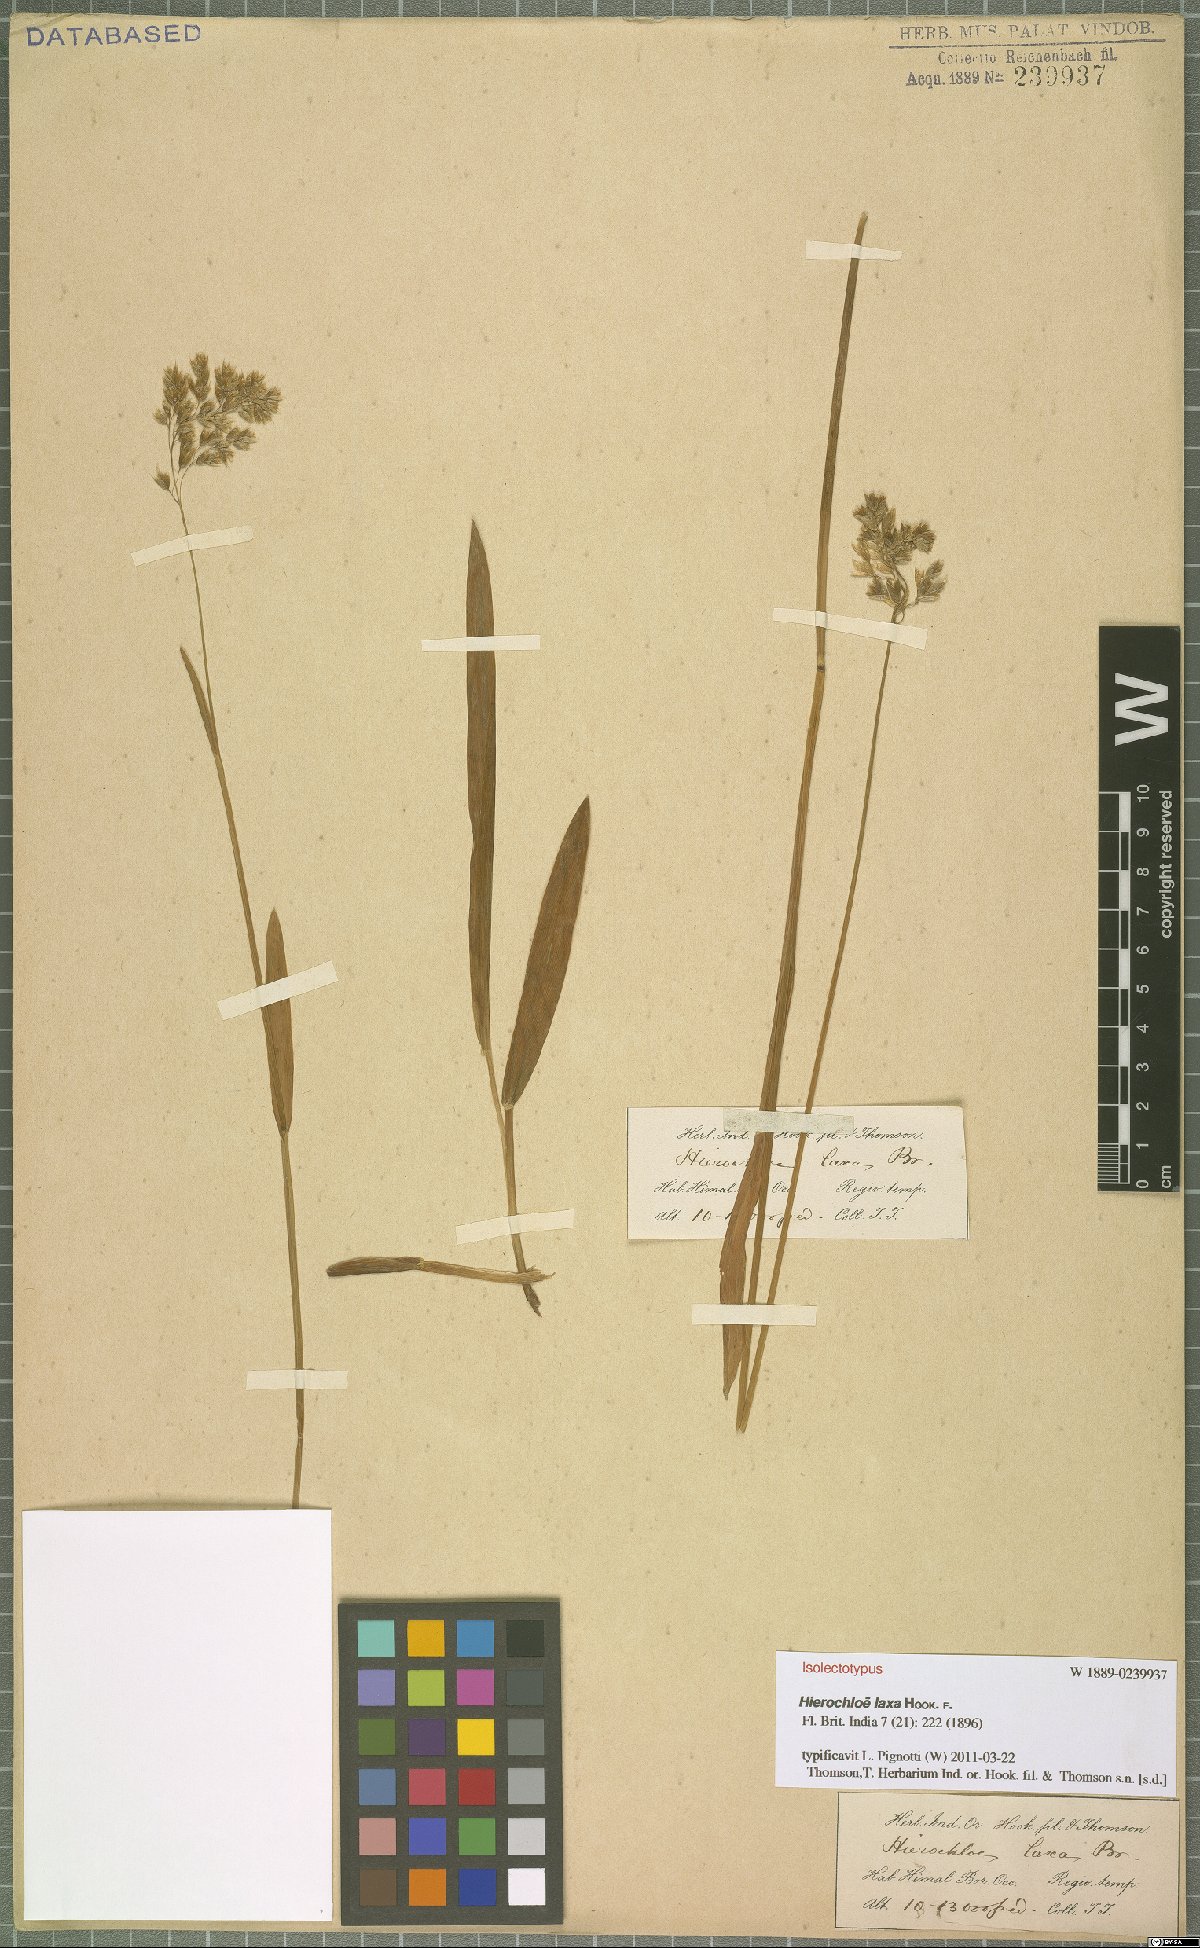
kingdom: Plantae
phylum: Tracheophyta
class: Liliopsida
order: Poales
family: Poaceae
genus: Anthoxanthum
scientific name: Anthoxanthum laxum
